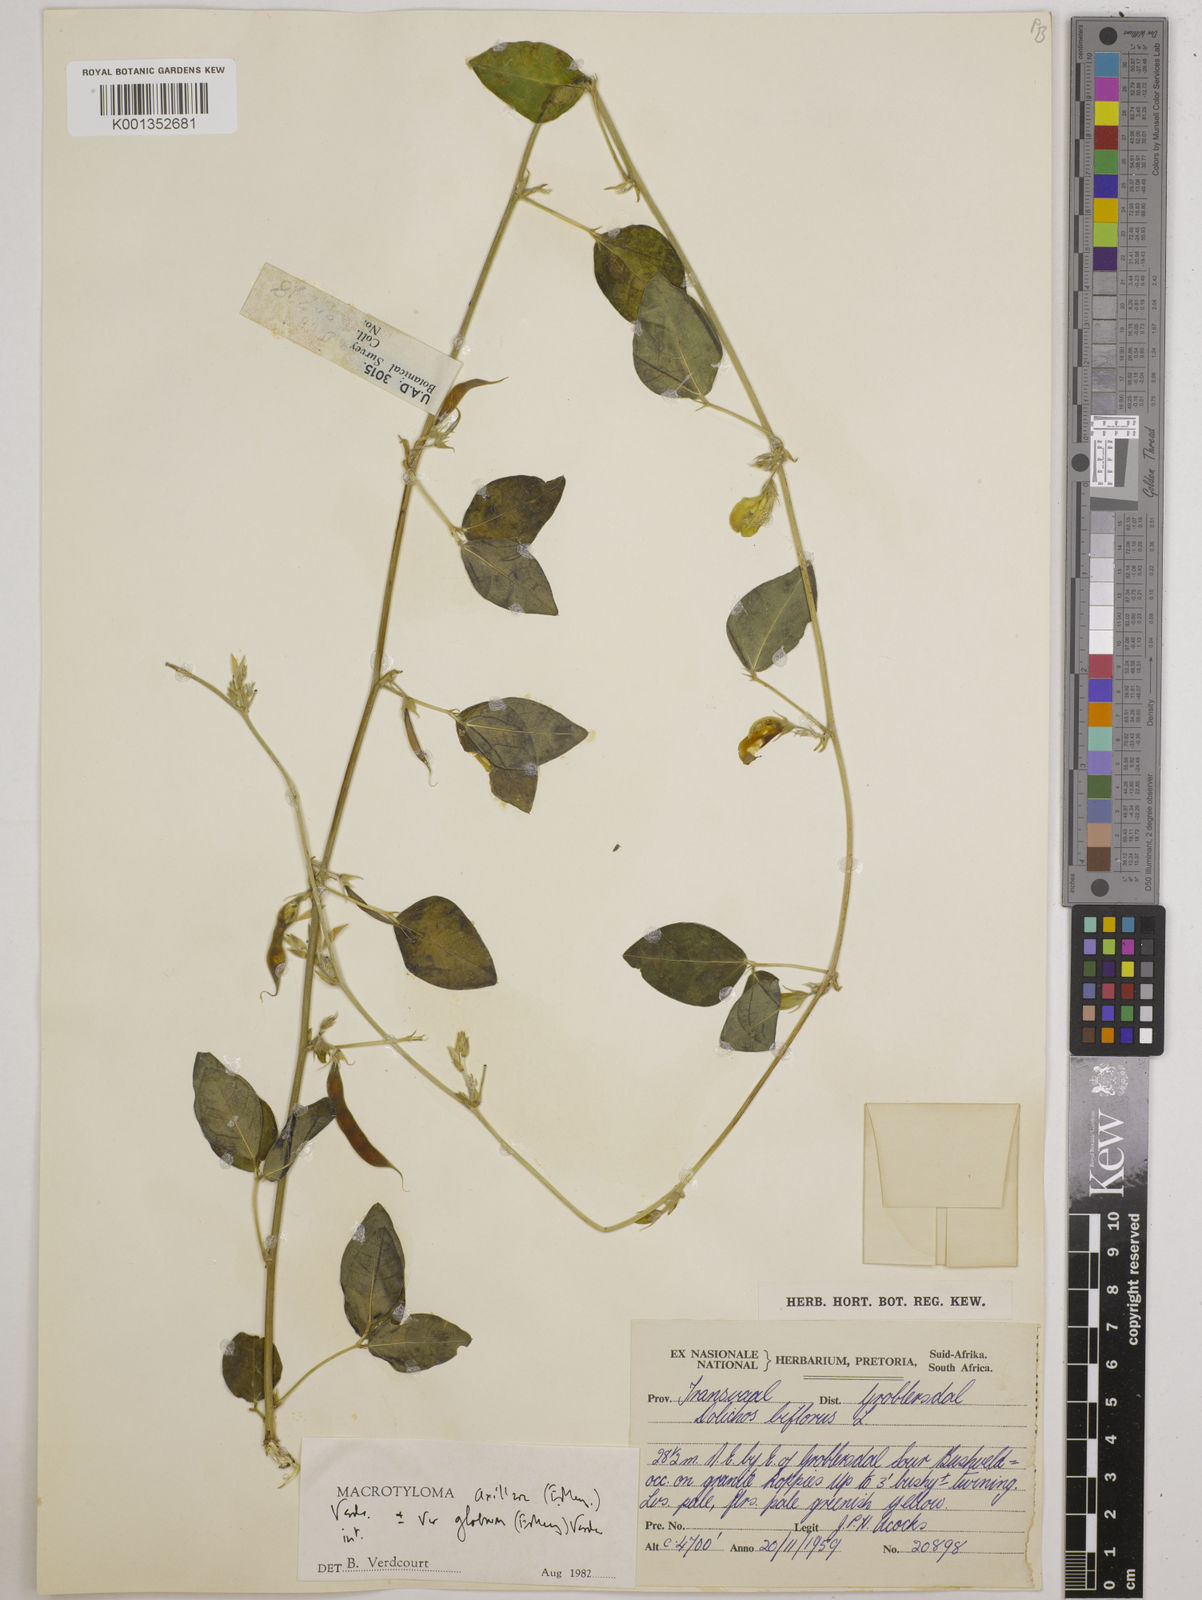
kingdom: Plantae
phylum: Tracheophyta
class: Magnoliopsida
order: Fabales
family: Fabaceae
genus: Macrotyloma
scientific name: Macrotyloma axillare
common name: Perennial horsegram
